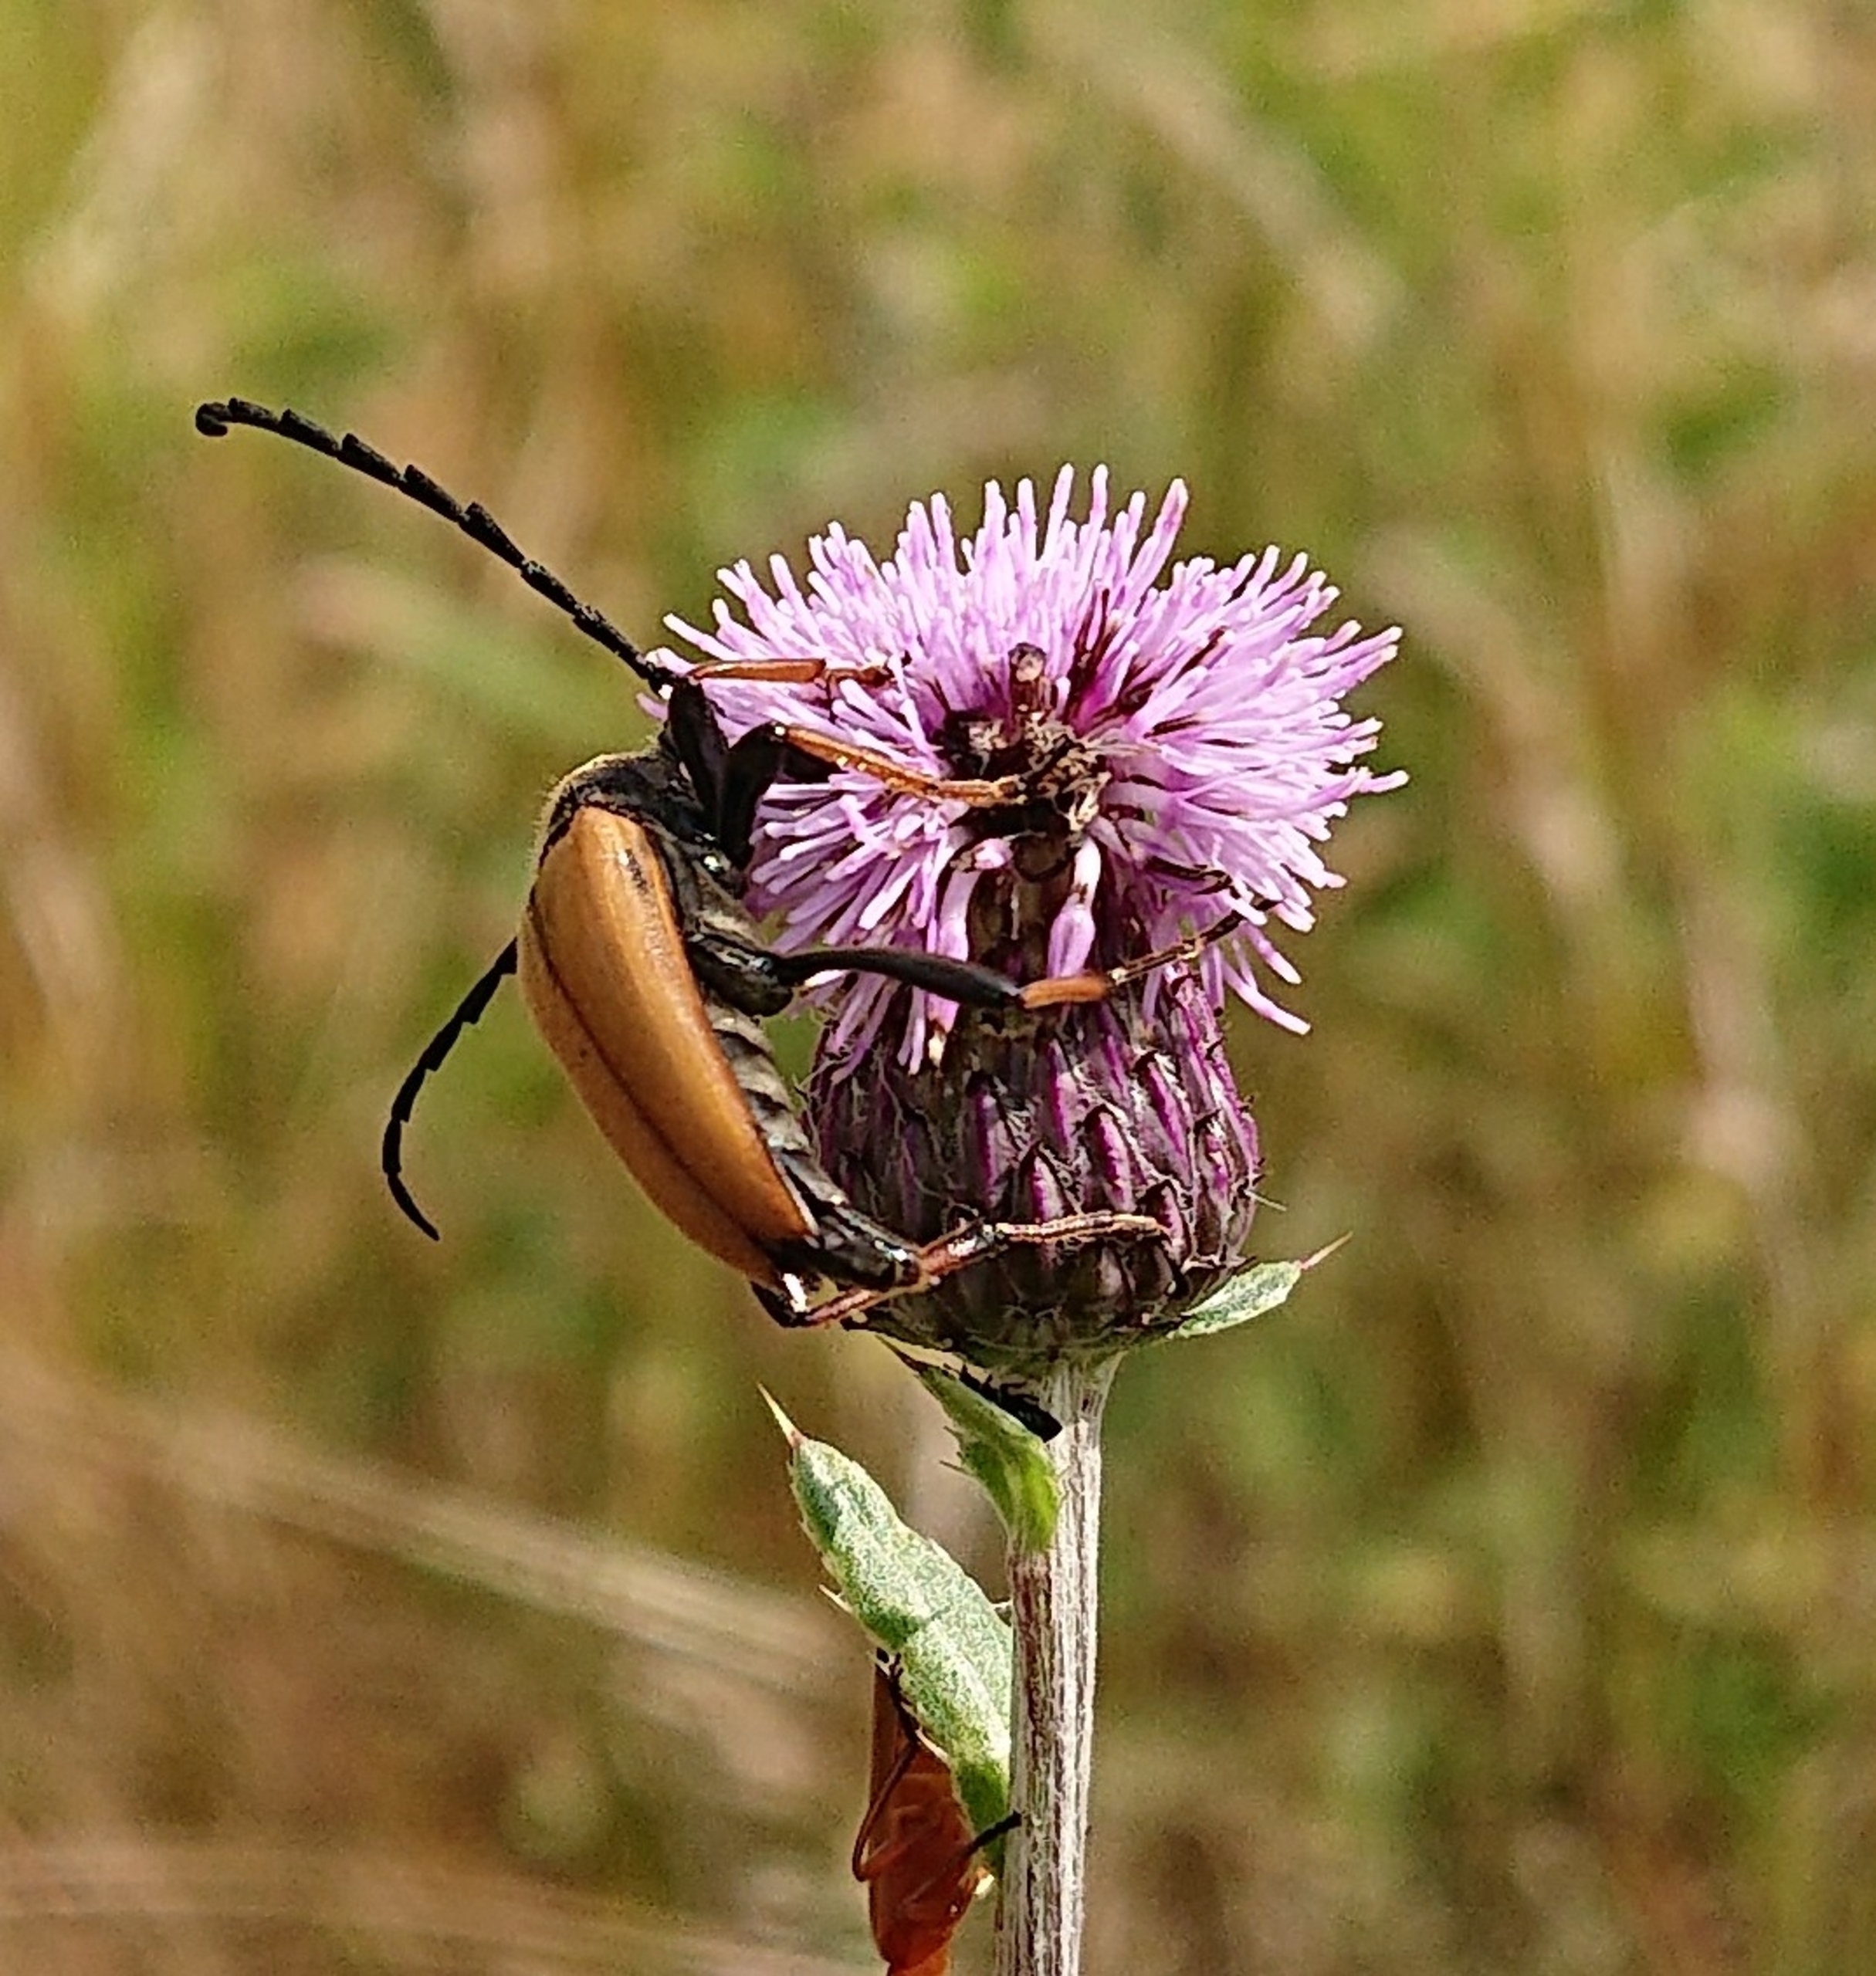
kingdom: Animalia
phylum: Arthropoda
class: Insecta
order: Coleoptera
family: Cerambycidae
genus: Stictoleptura
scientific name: Stictoleptura rubra
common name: Rød blomsterbuk
